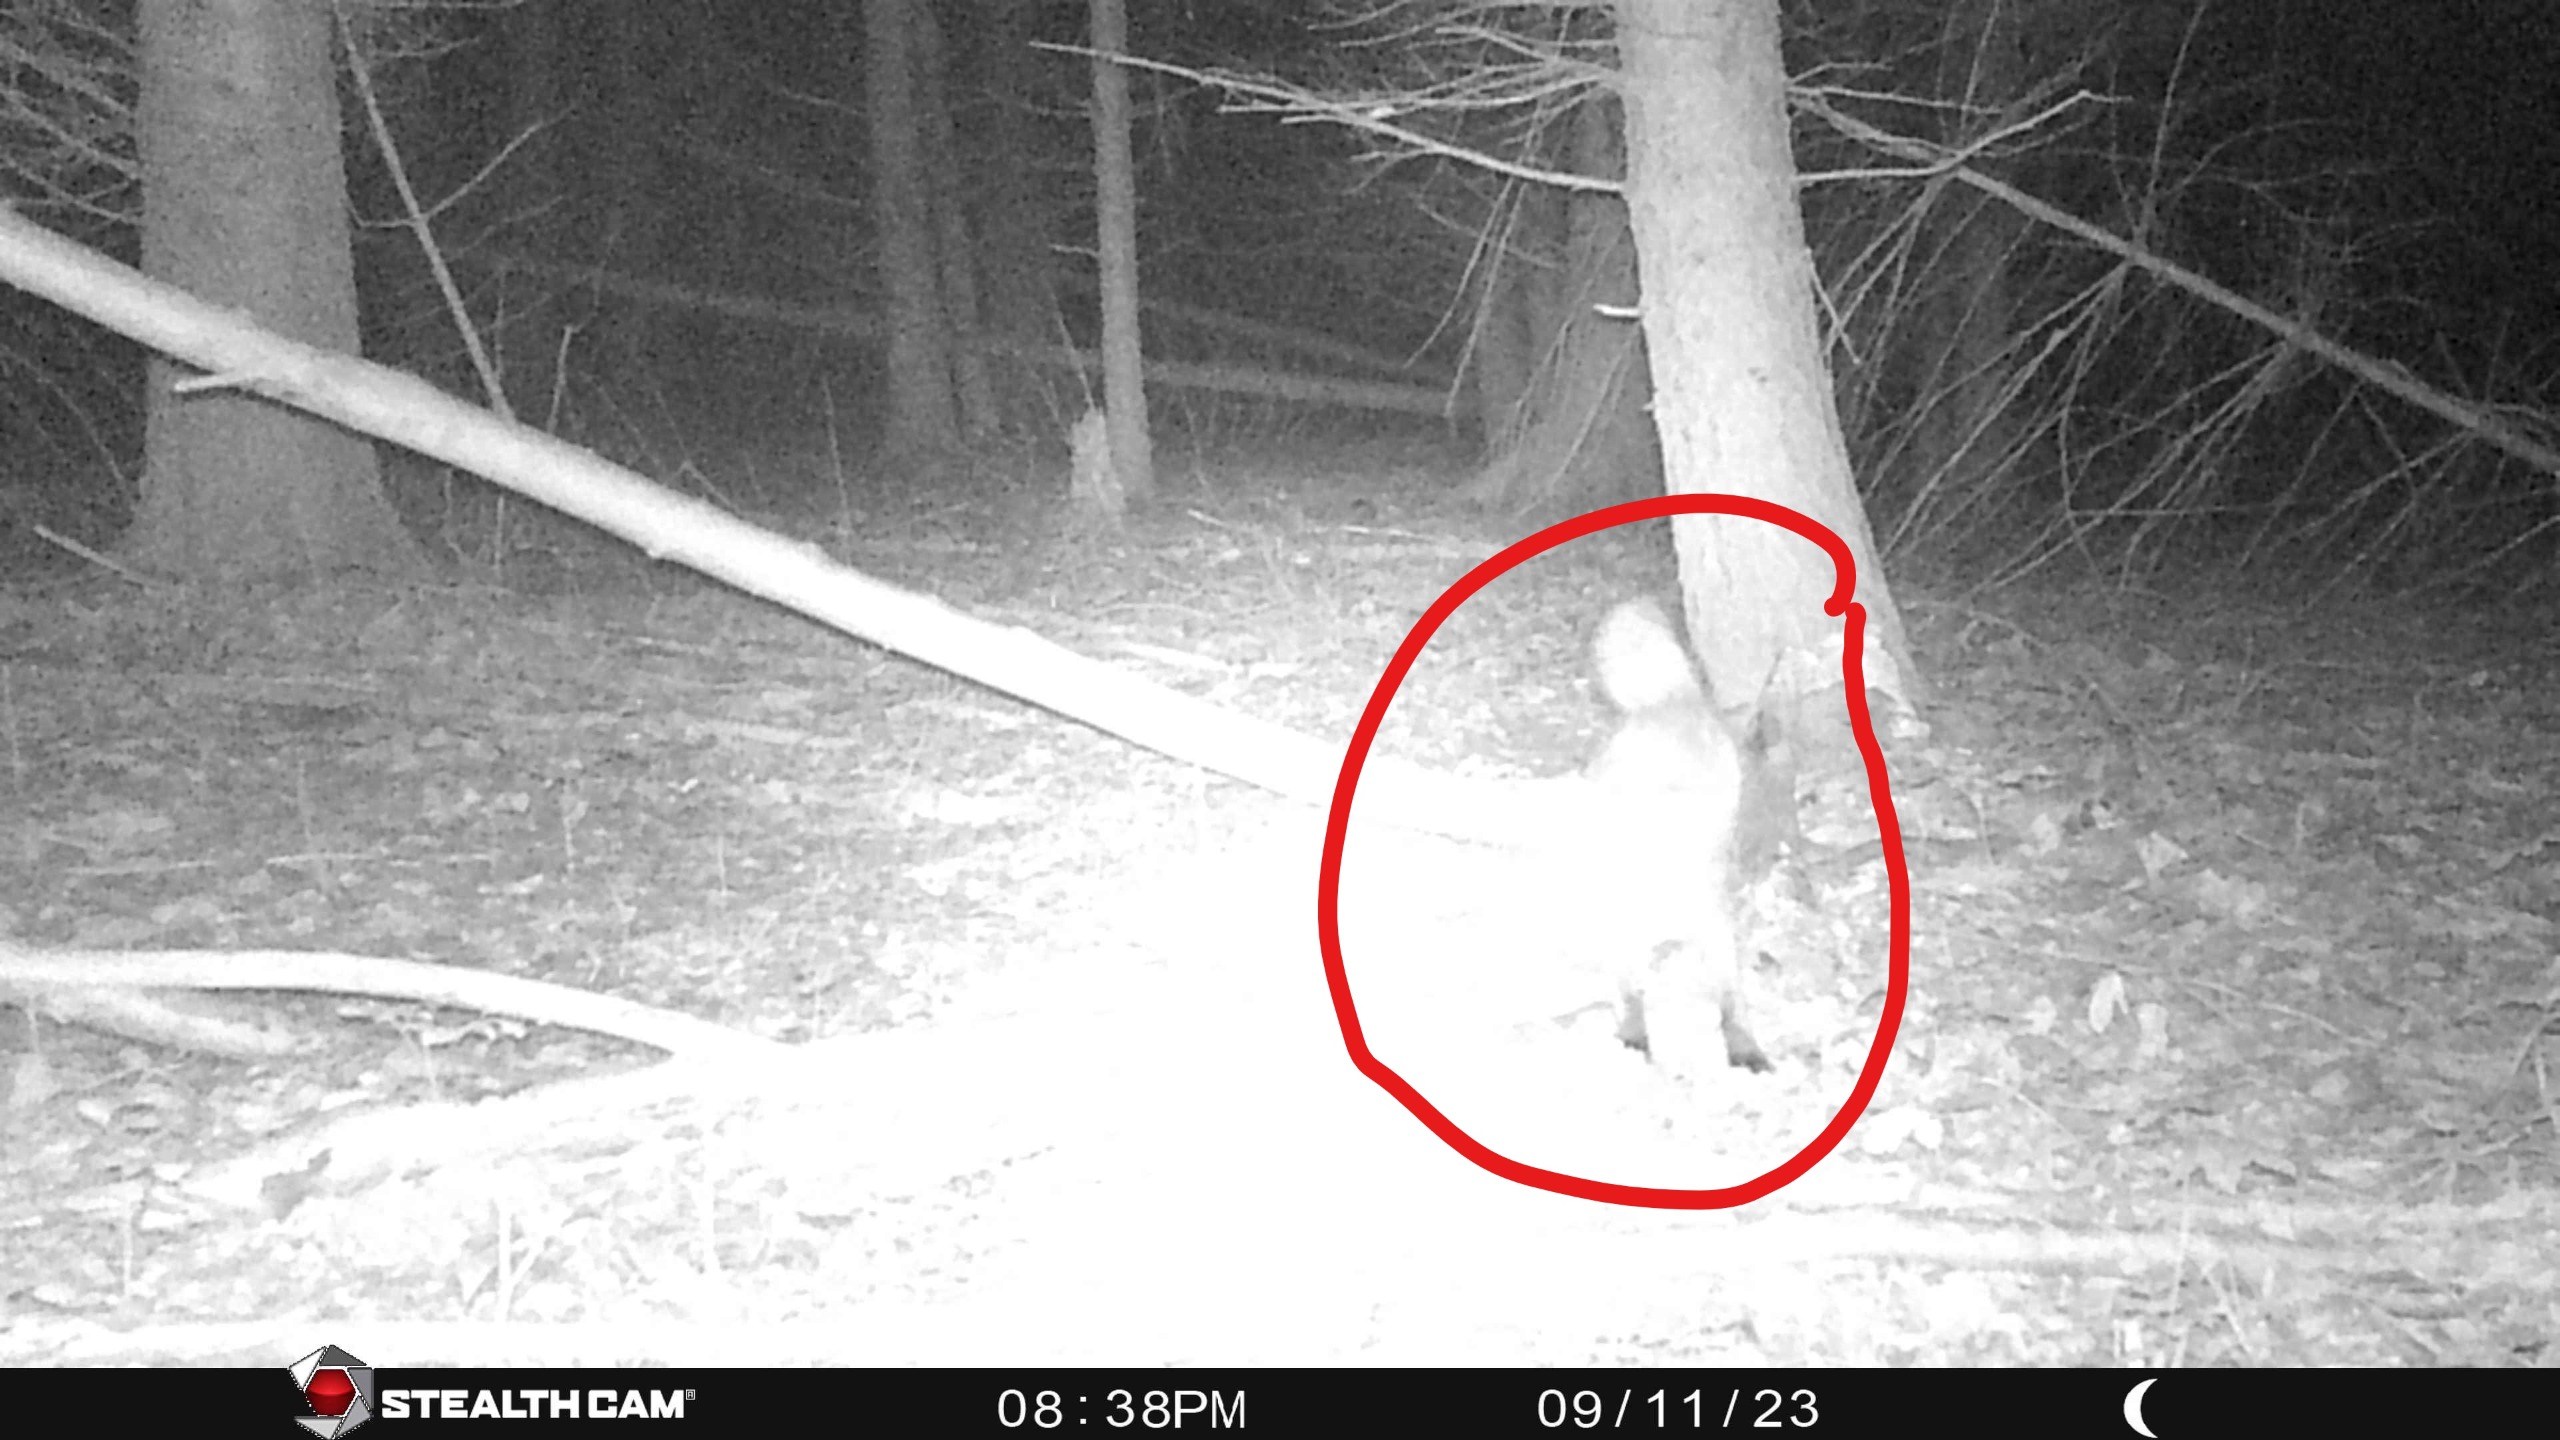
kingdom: Animalia
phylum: Chordata
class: Mammalia
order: Carnivora
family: Canidae
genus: Vulpes
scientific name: Vulpes vulpes
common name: Ræv
